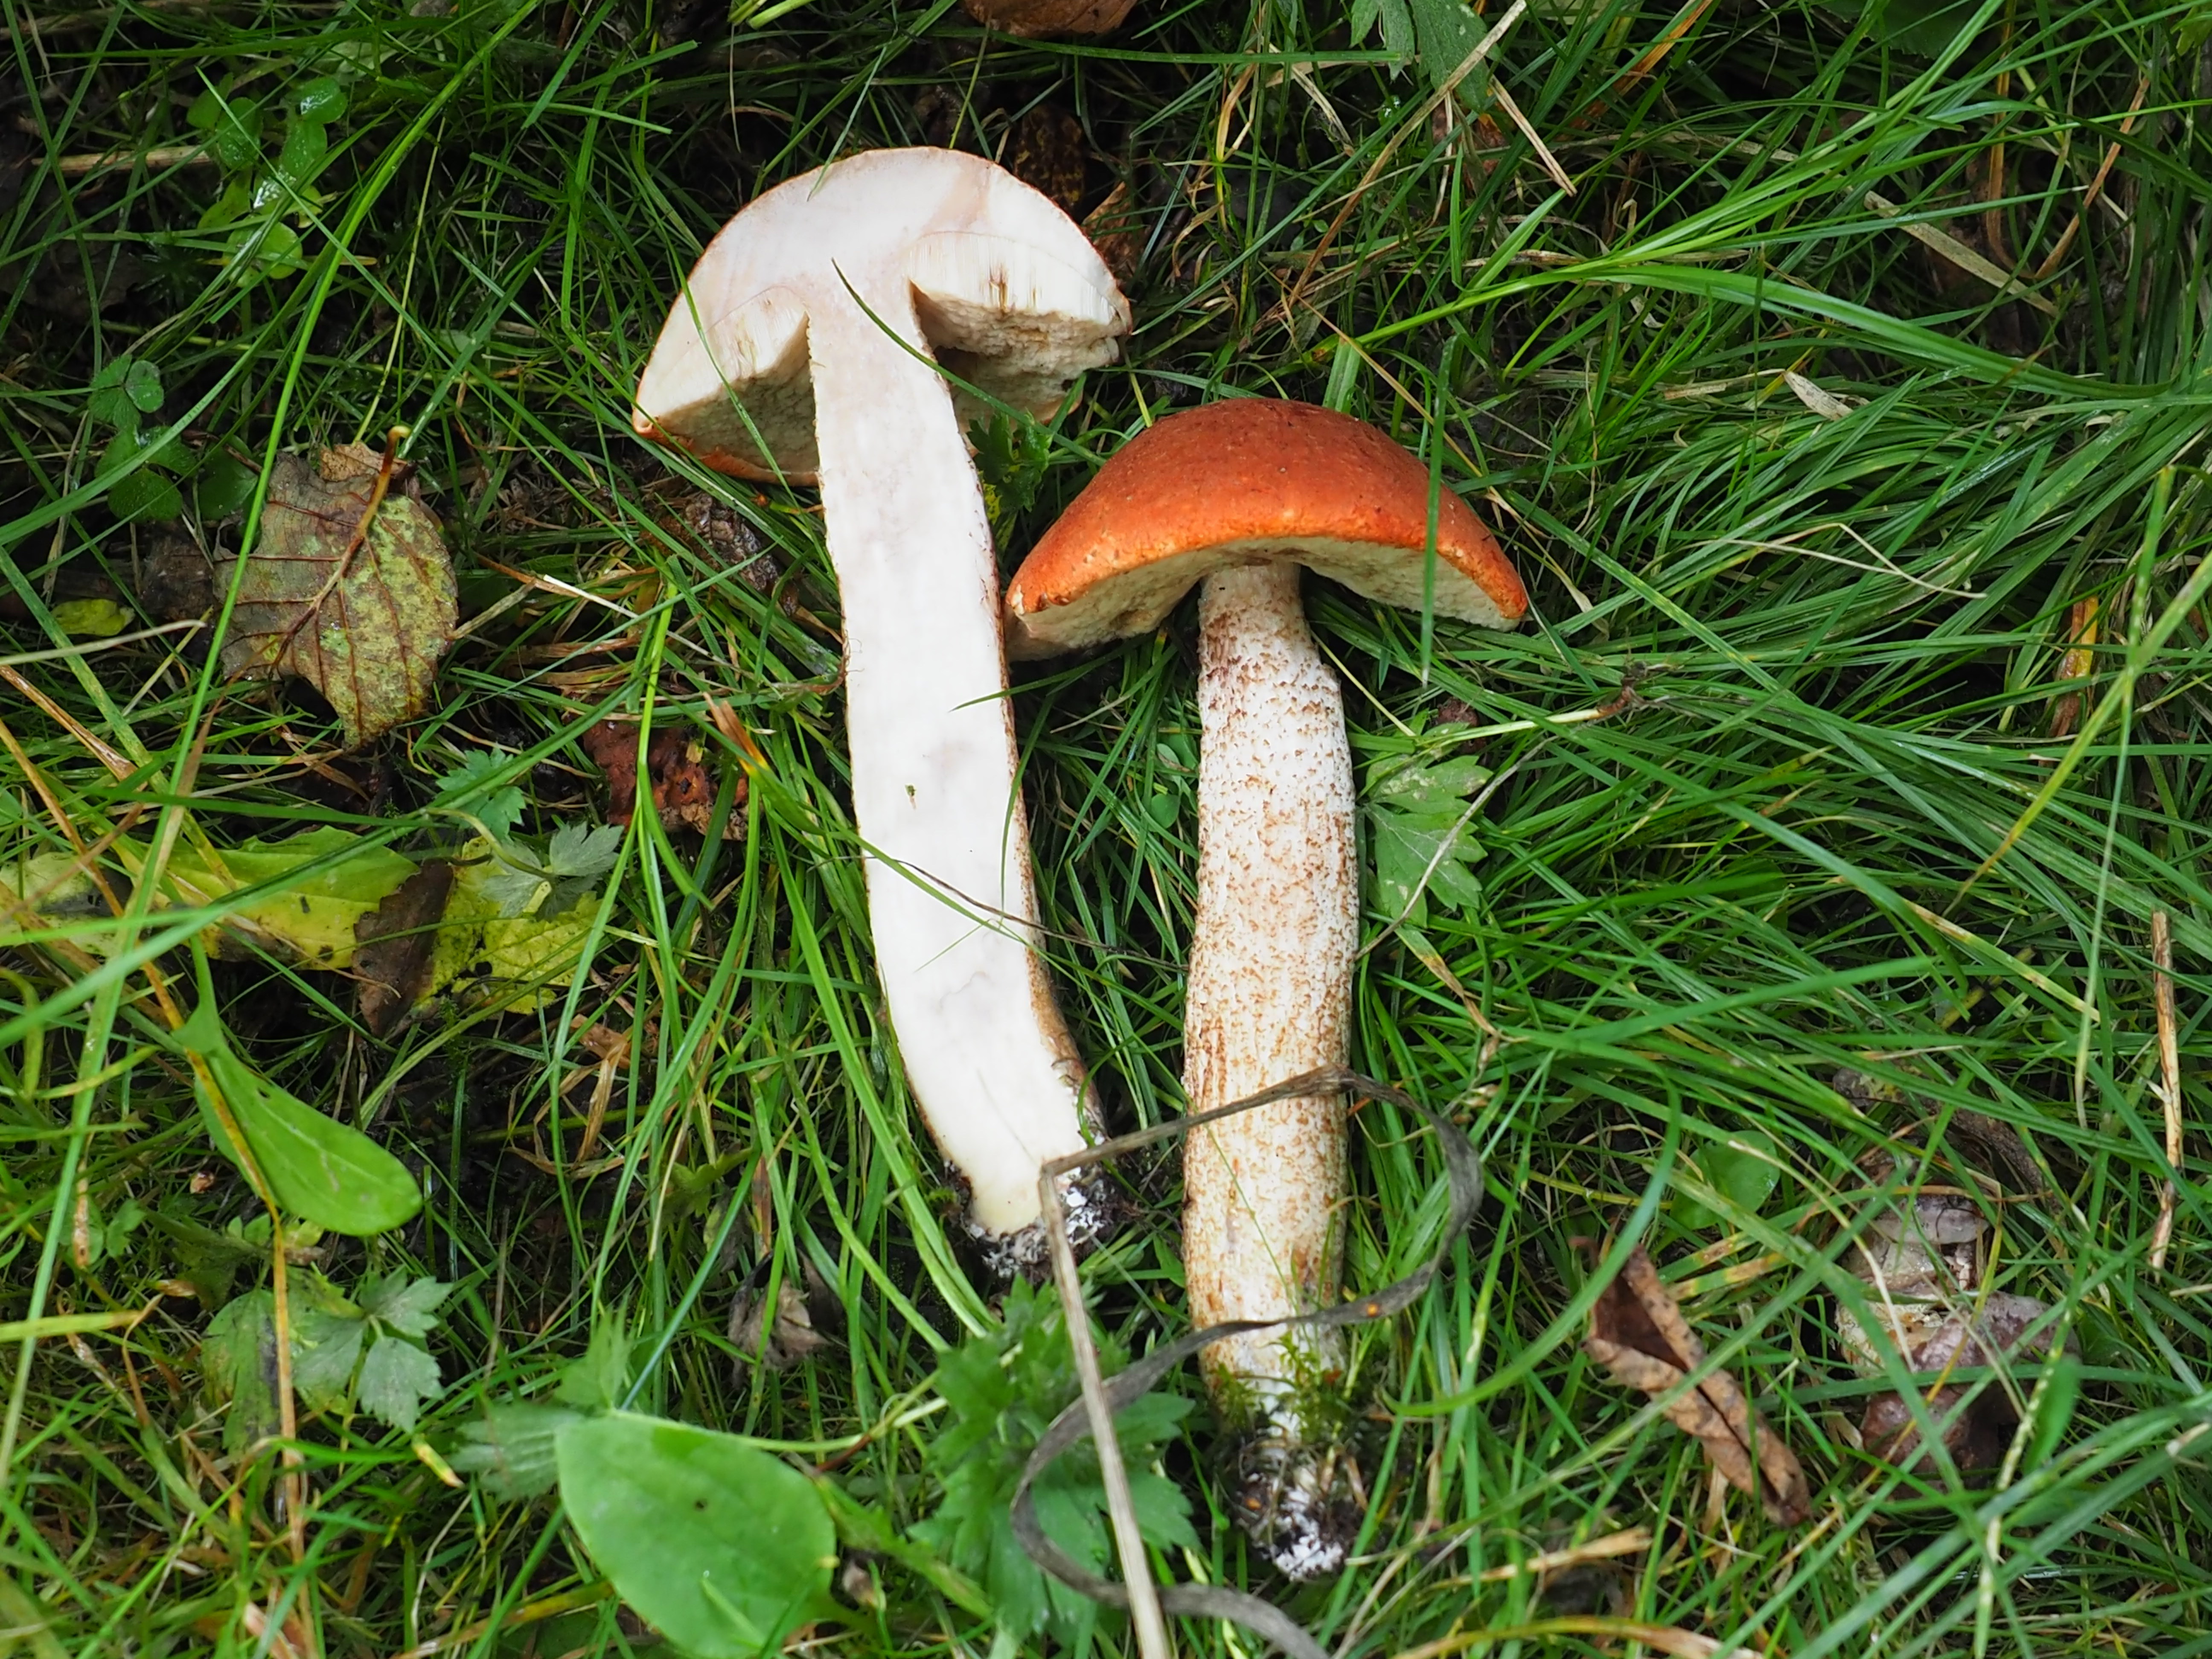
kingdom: Fungi
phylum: Basidiomycota
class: Agaricomycetes
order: Boletales
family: Boletaceae
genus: Leccinum
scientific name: Leccinum albostipitatum
